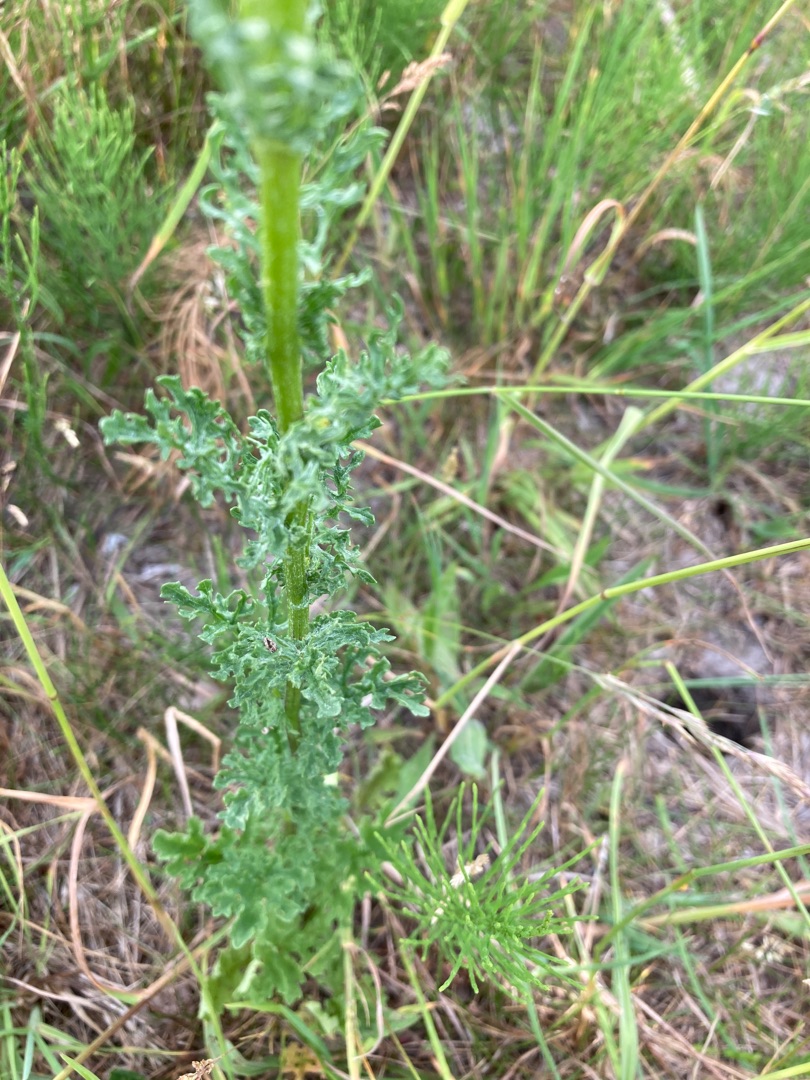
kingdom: Plantae
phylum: Tracheophyta
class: Magnoliopsida
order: Asterales
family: Asteraceae
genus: Jacobaea
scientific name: Jacobaea vulgaris
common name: Eng-brandbæger
